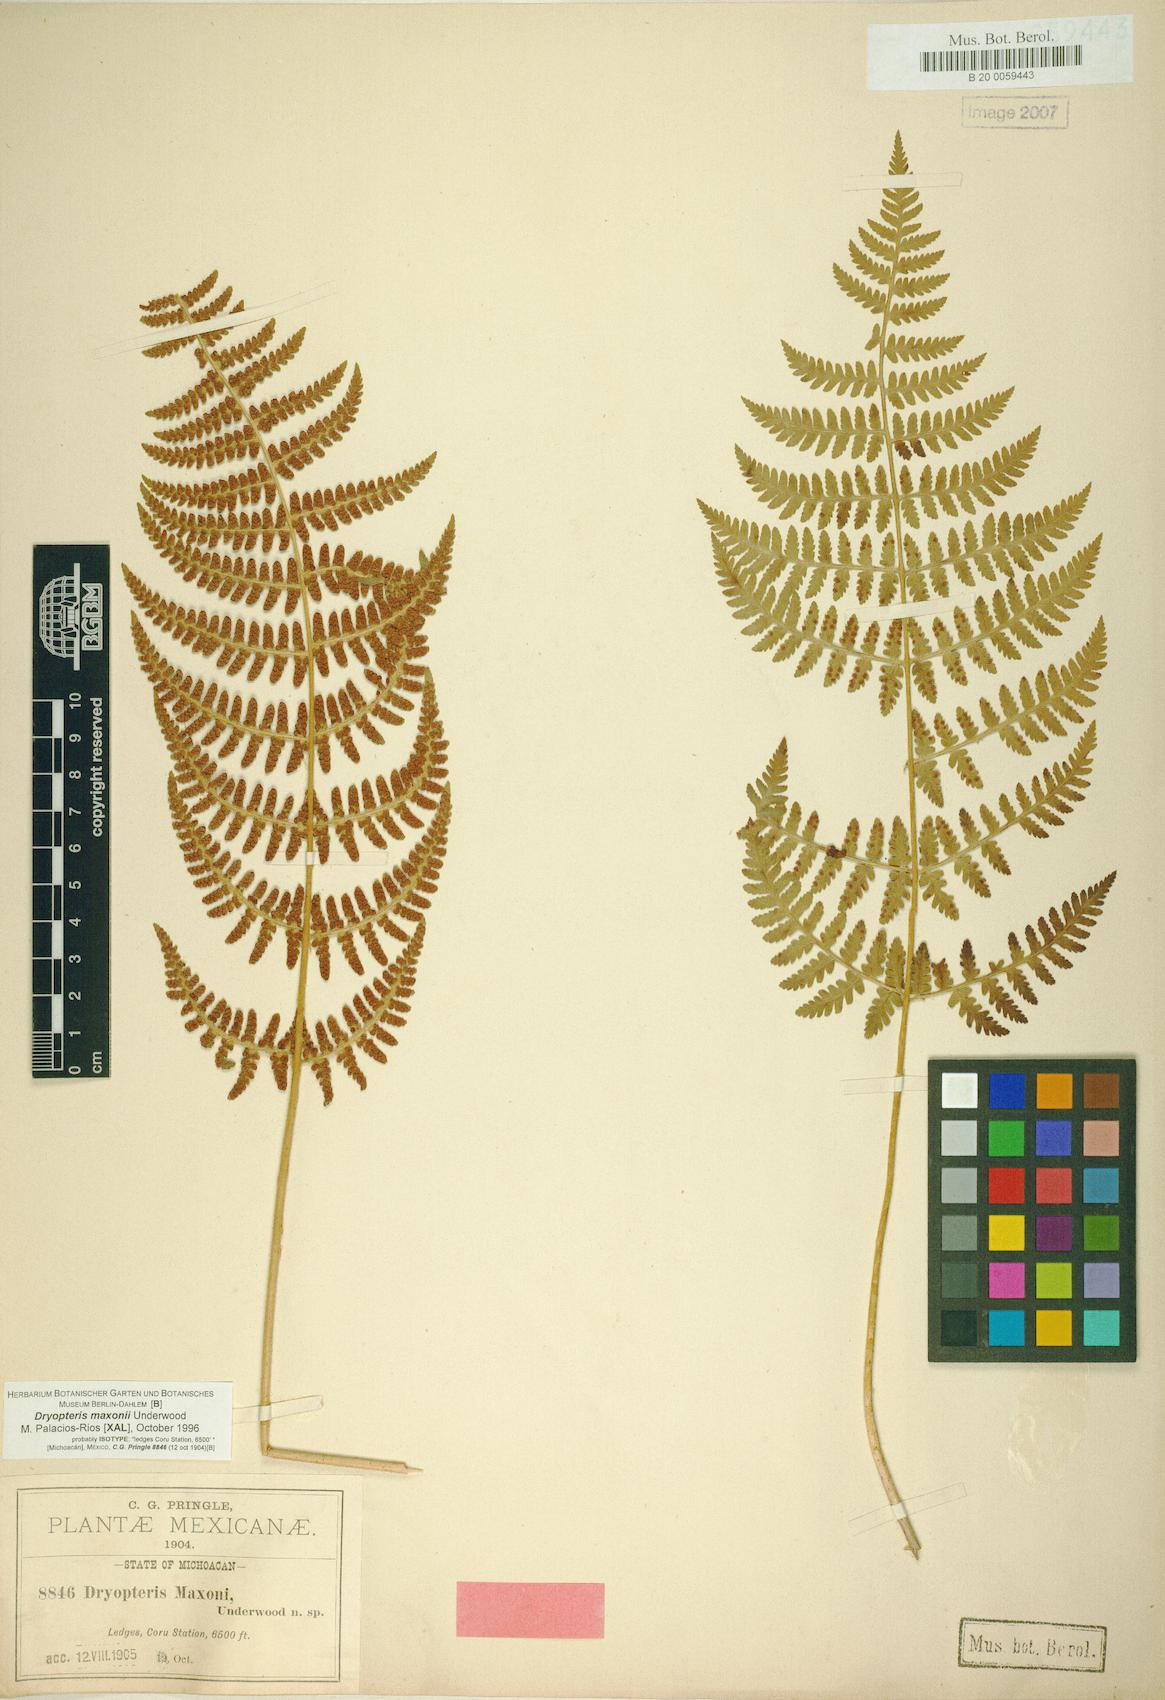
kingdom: Plantae
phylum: Tracheophyta
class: Polypodiopsida
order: Polypodiales
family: Dryopteridaceae
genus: Dryopteris
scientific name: Dryopteris maxonii
